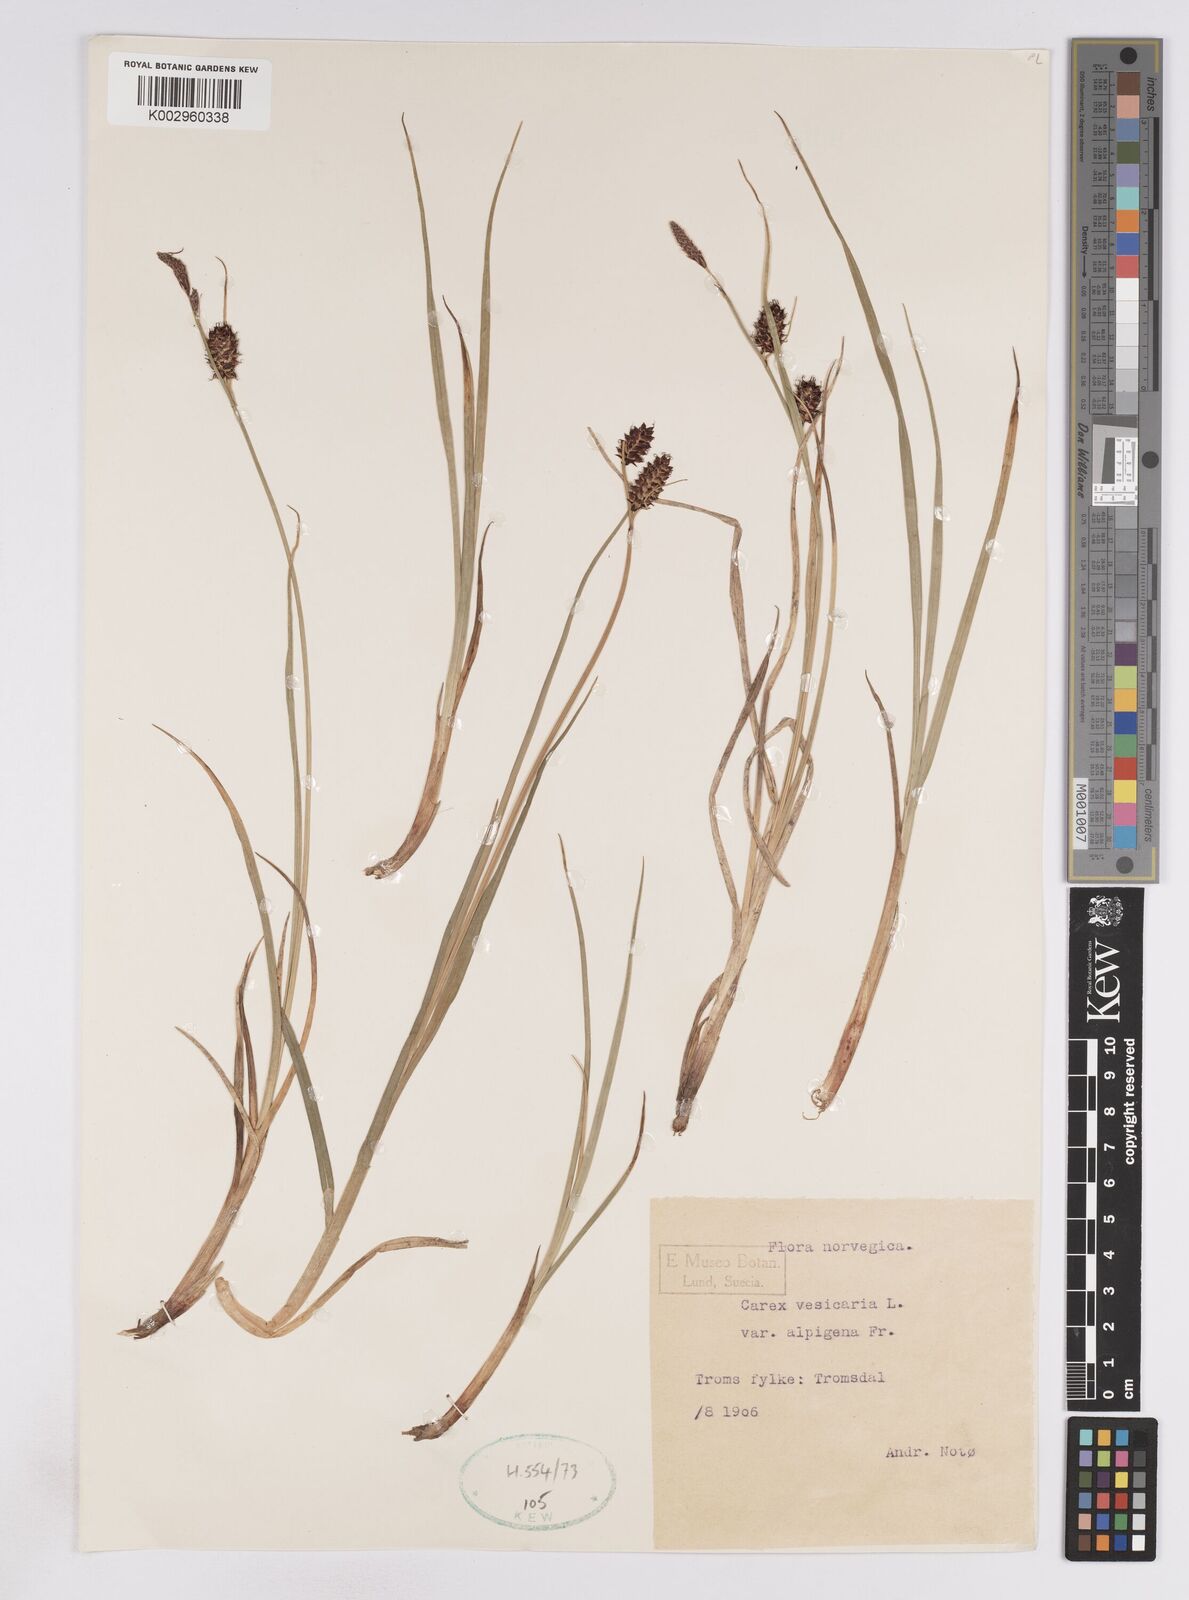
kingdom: Plantae
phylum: Tracheophyta
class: Liliopsida
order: Poales
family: Cyperaceae
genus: Carex
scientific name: Carex vesicaria
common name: Bladder-sedge
